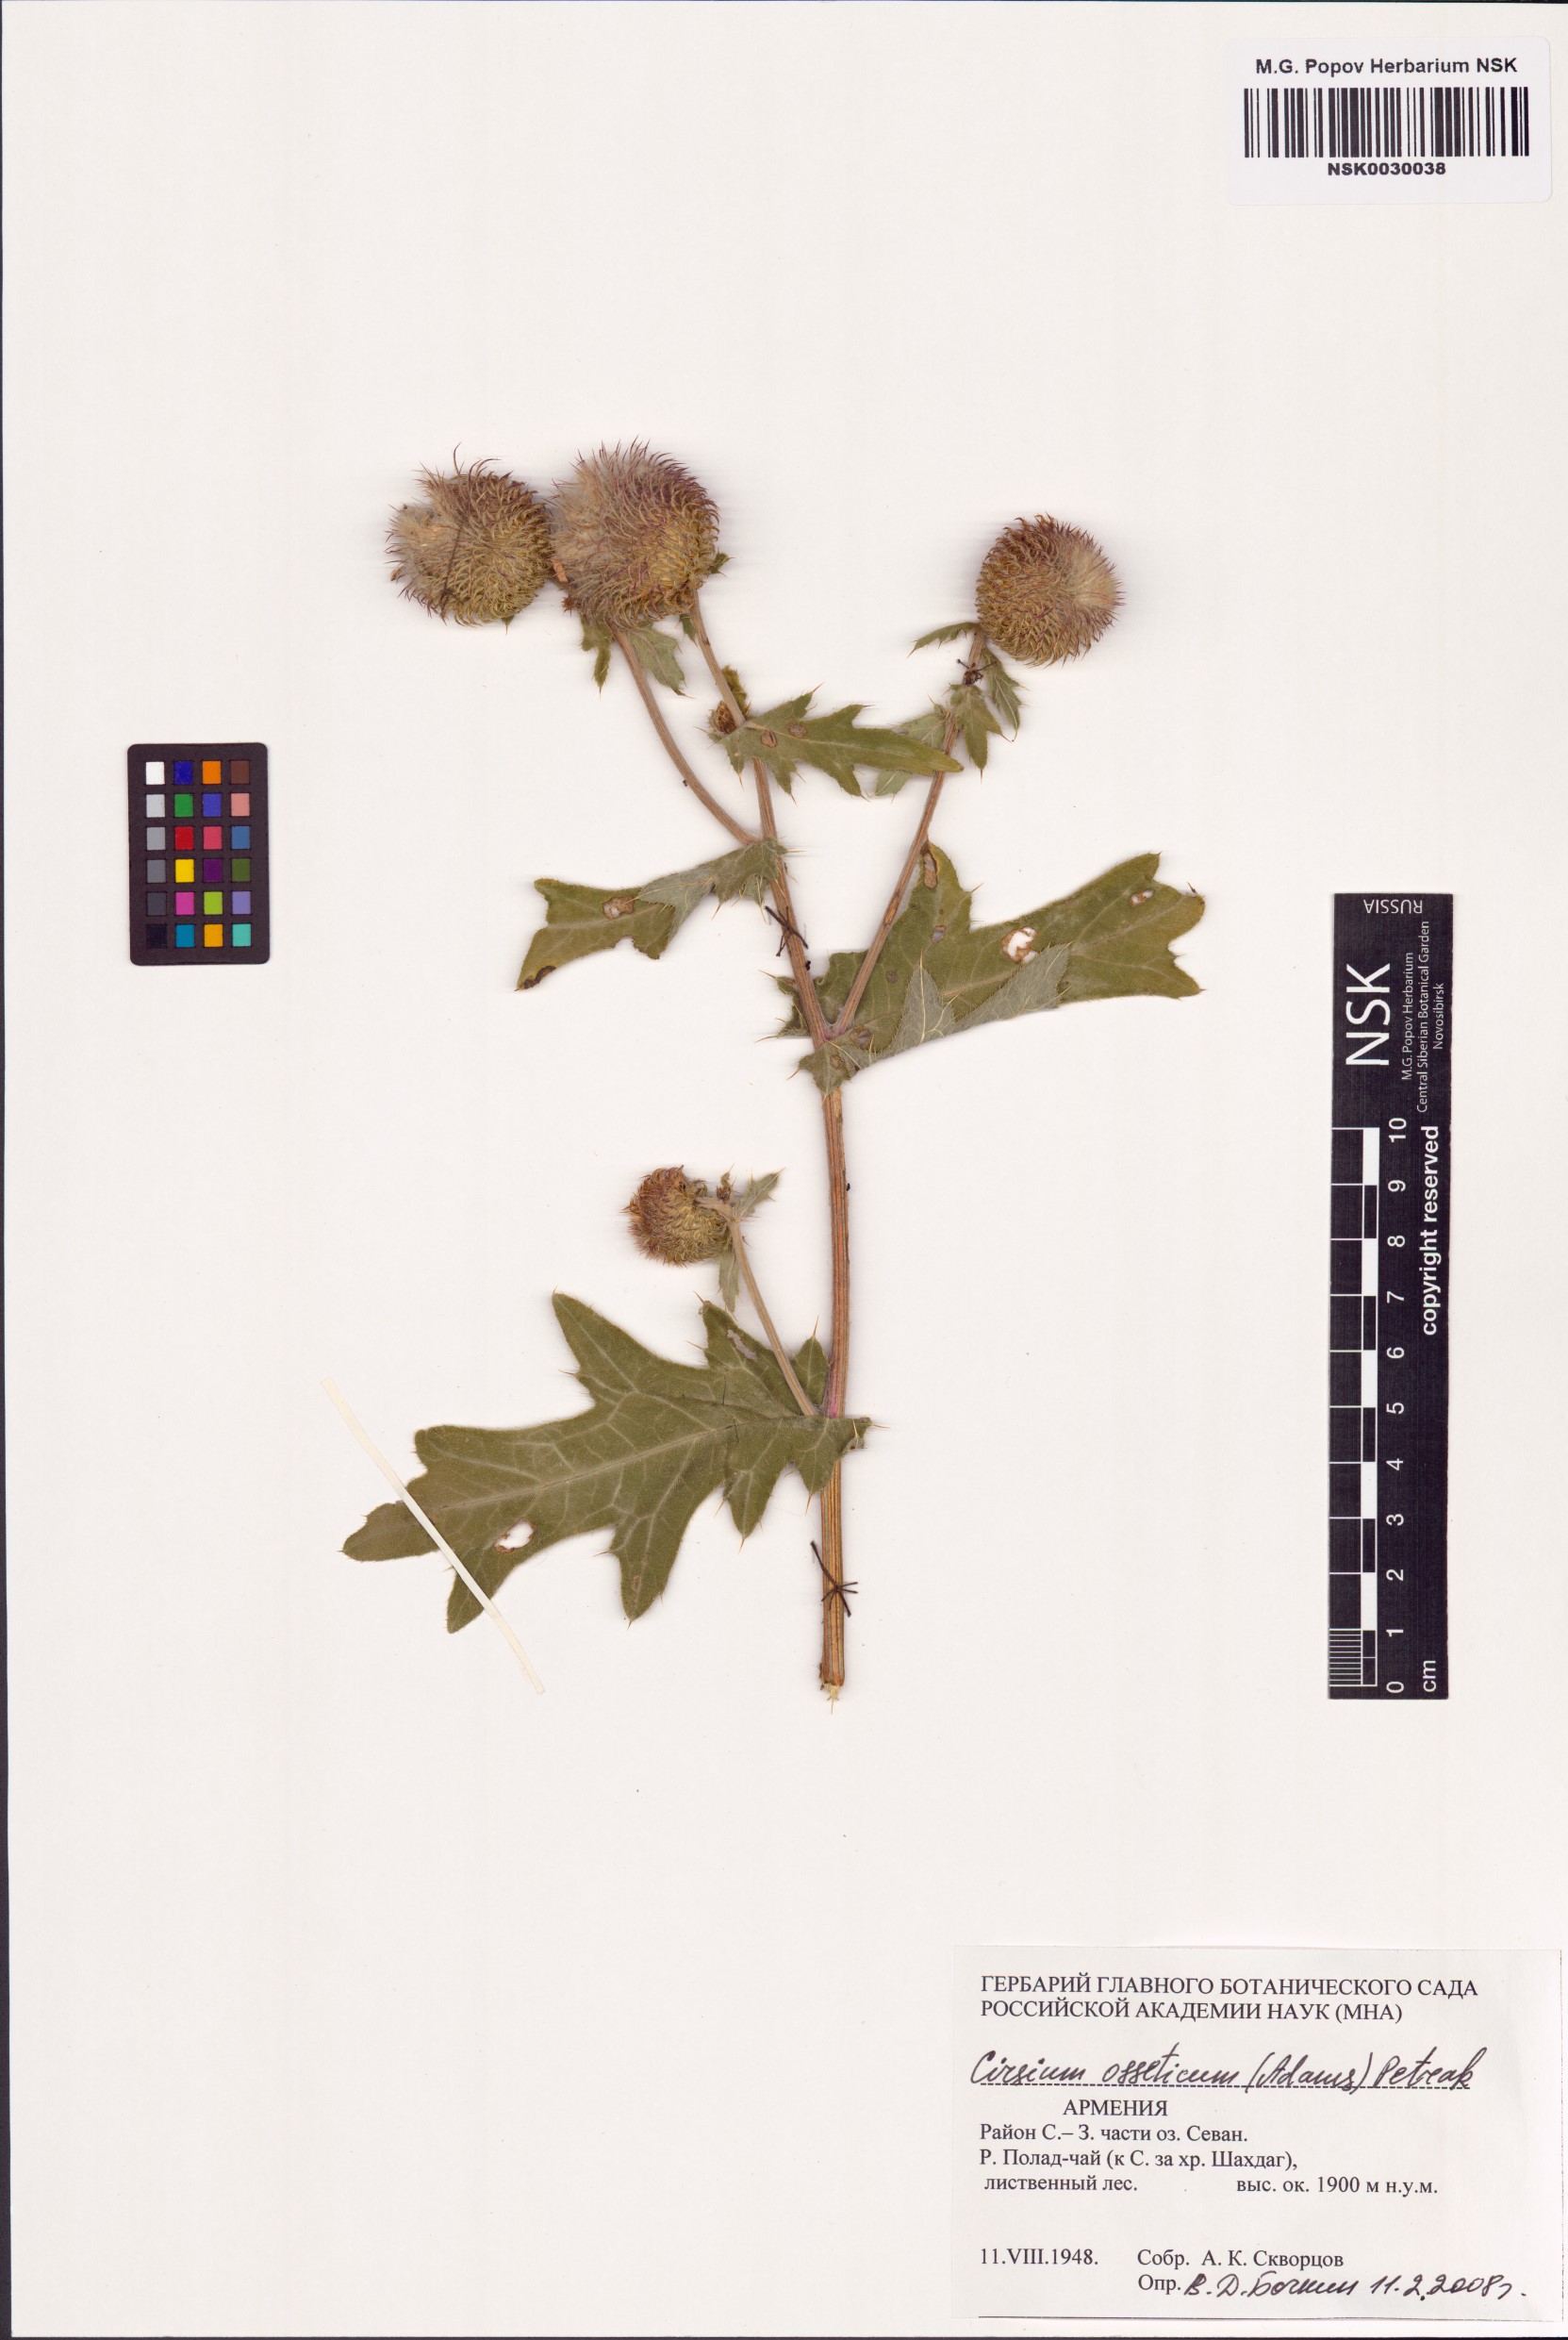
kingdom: Plantae
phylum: Tracheophyta
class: Magnoliopsida
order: Asterales
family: Asteraceae
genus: Lophiolepis
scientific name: Lophiolepis ossetica
